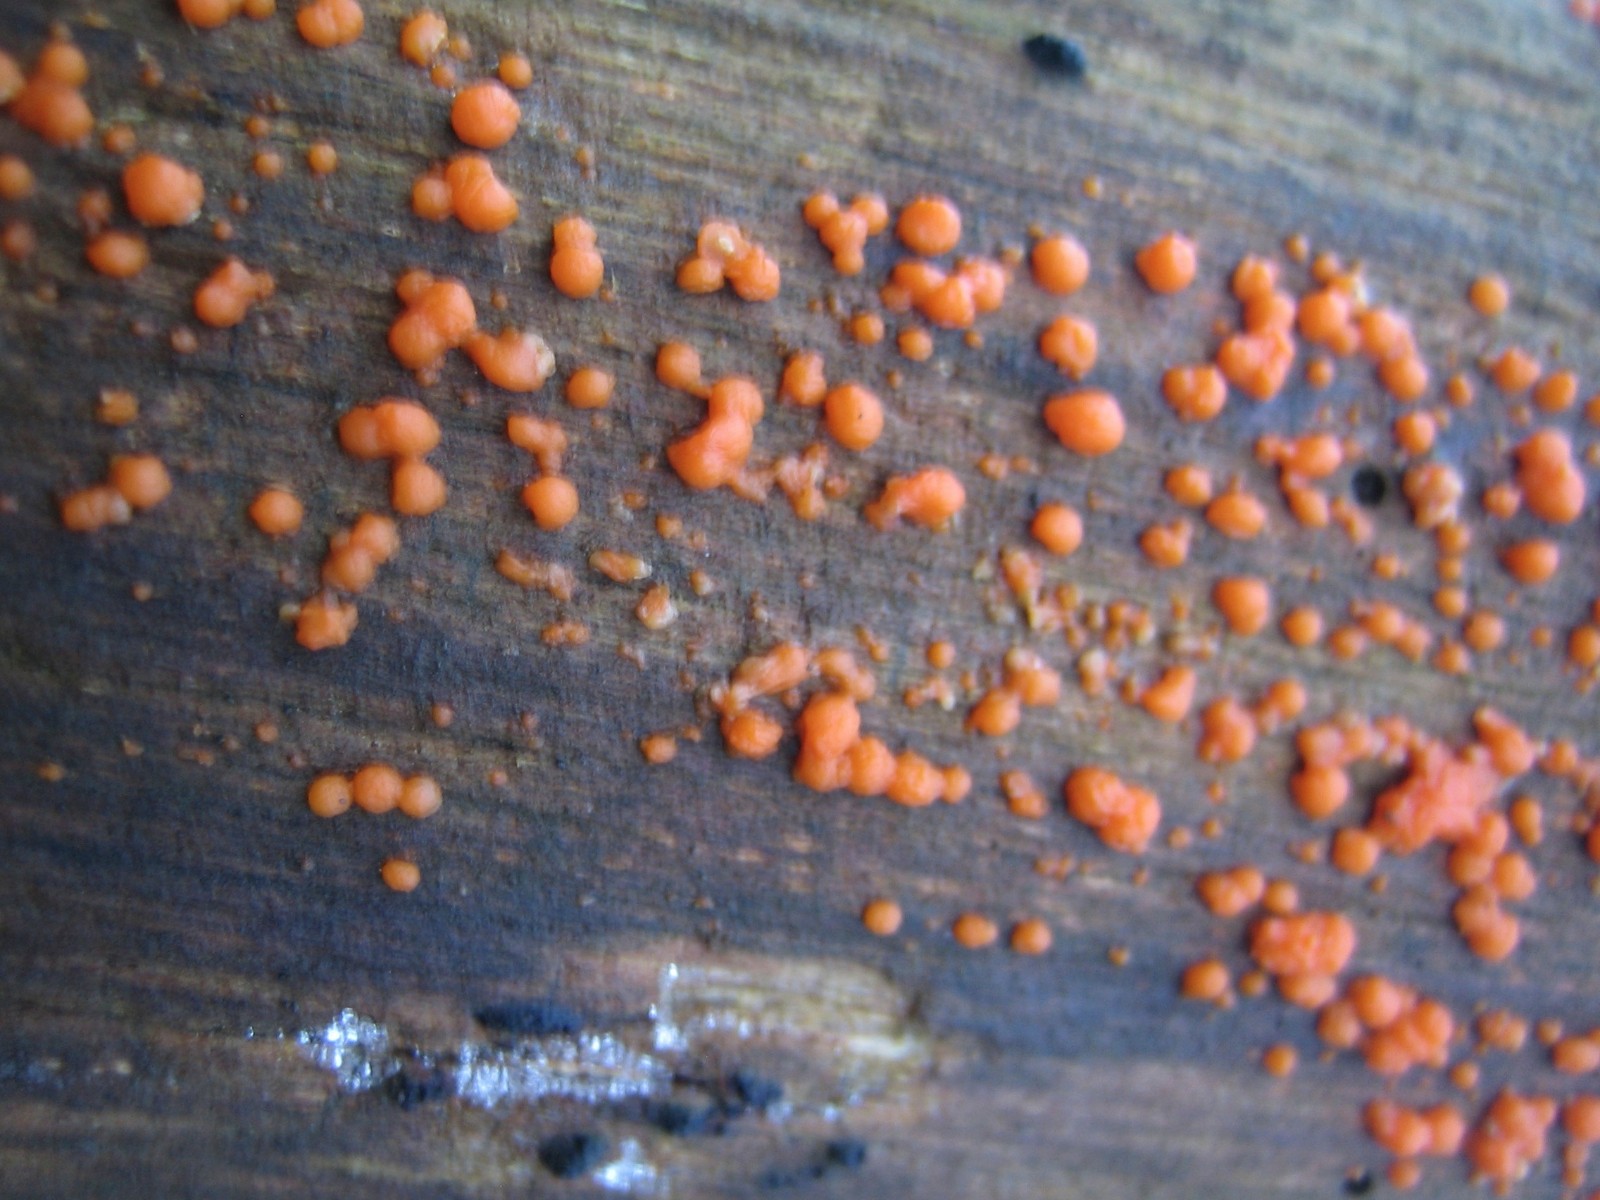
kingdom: Fungi
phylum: Basidiomycota
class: Dacrymycetes
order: Dacrymycetales
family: Dacrymycetaceae
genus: Dacrymyces
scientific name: Dacrymyces stillatus
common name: almindelig tåresvamp
